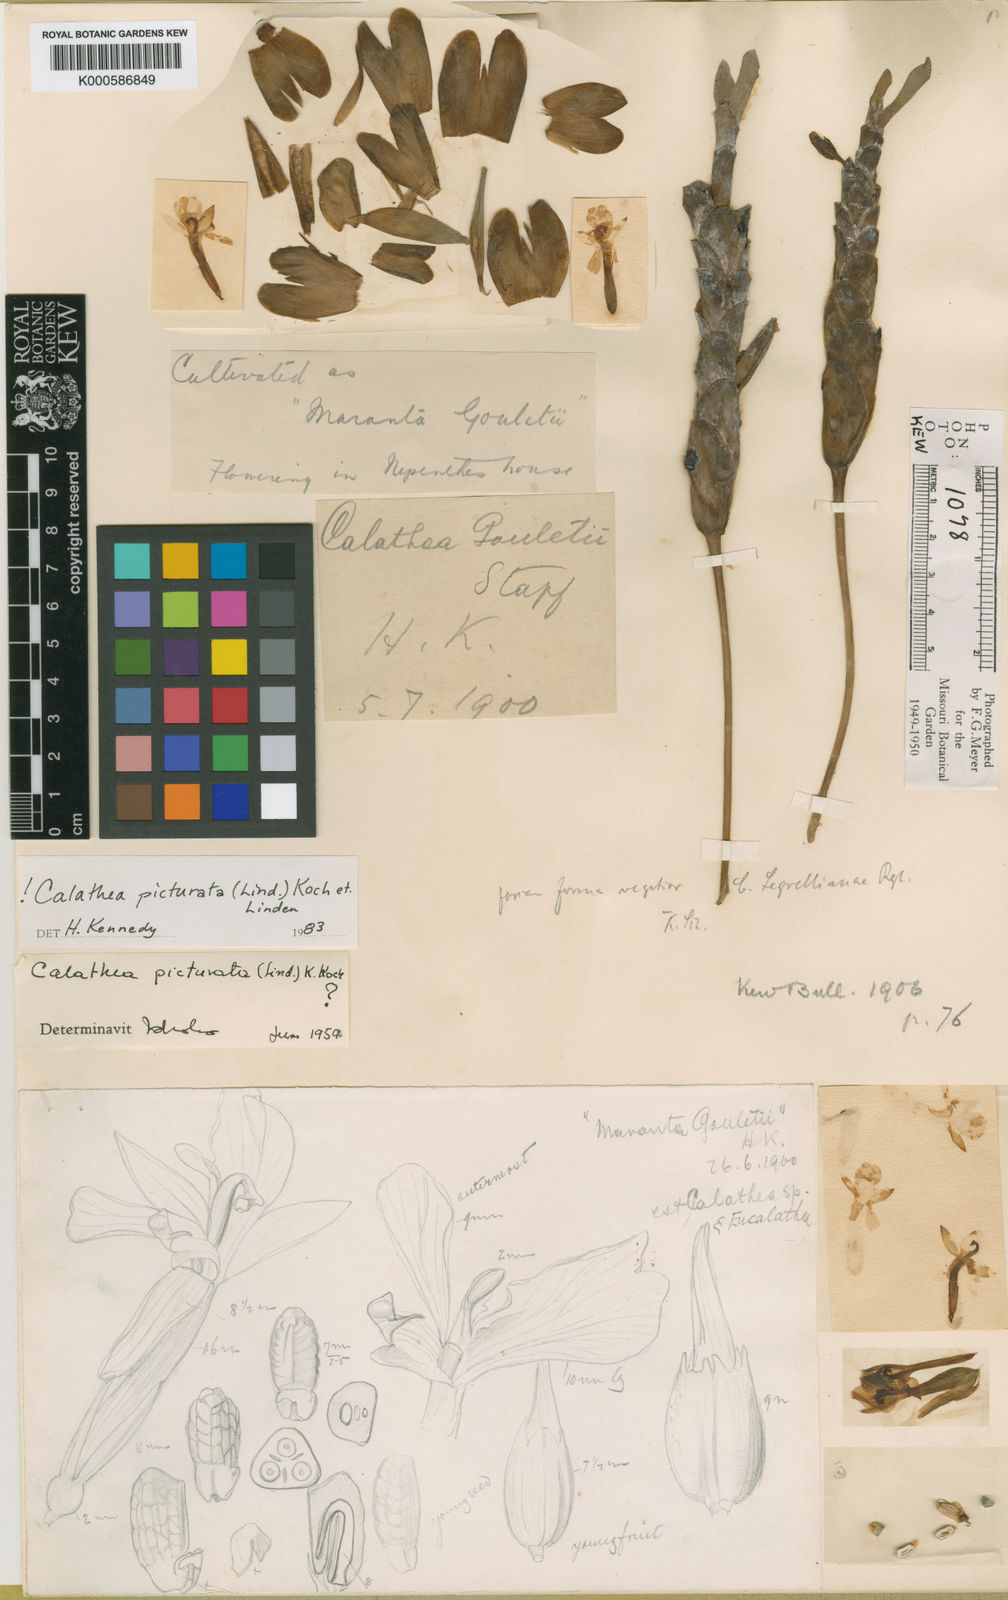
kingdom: Plantae
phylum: Tracheophyta
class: Liliopsida
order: Zingiberales
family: Marantaceae
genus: Goeppertia
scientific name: Goeppertia picturata
